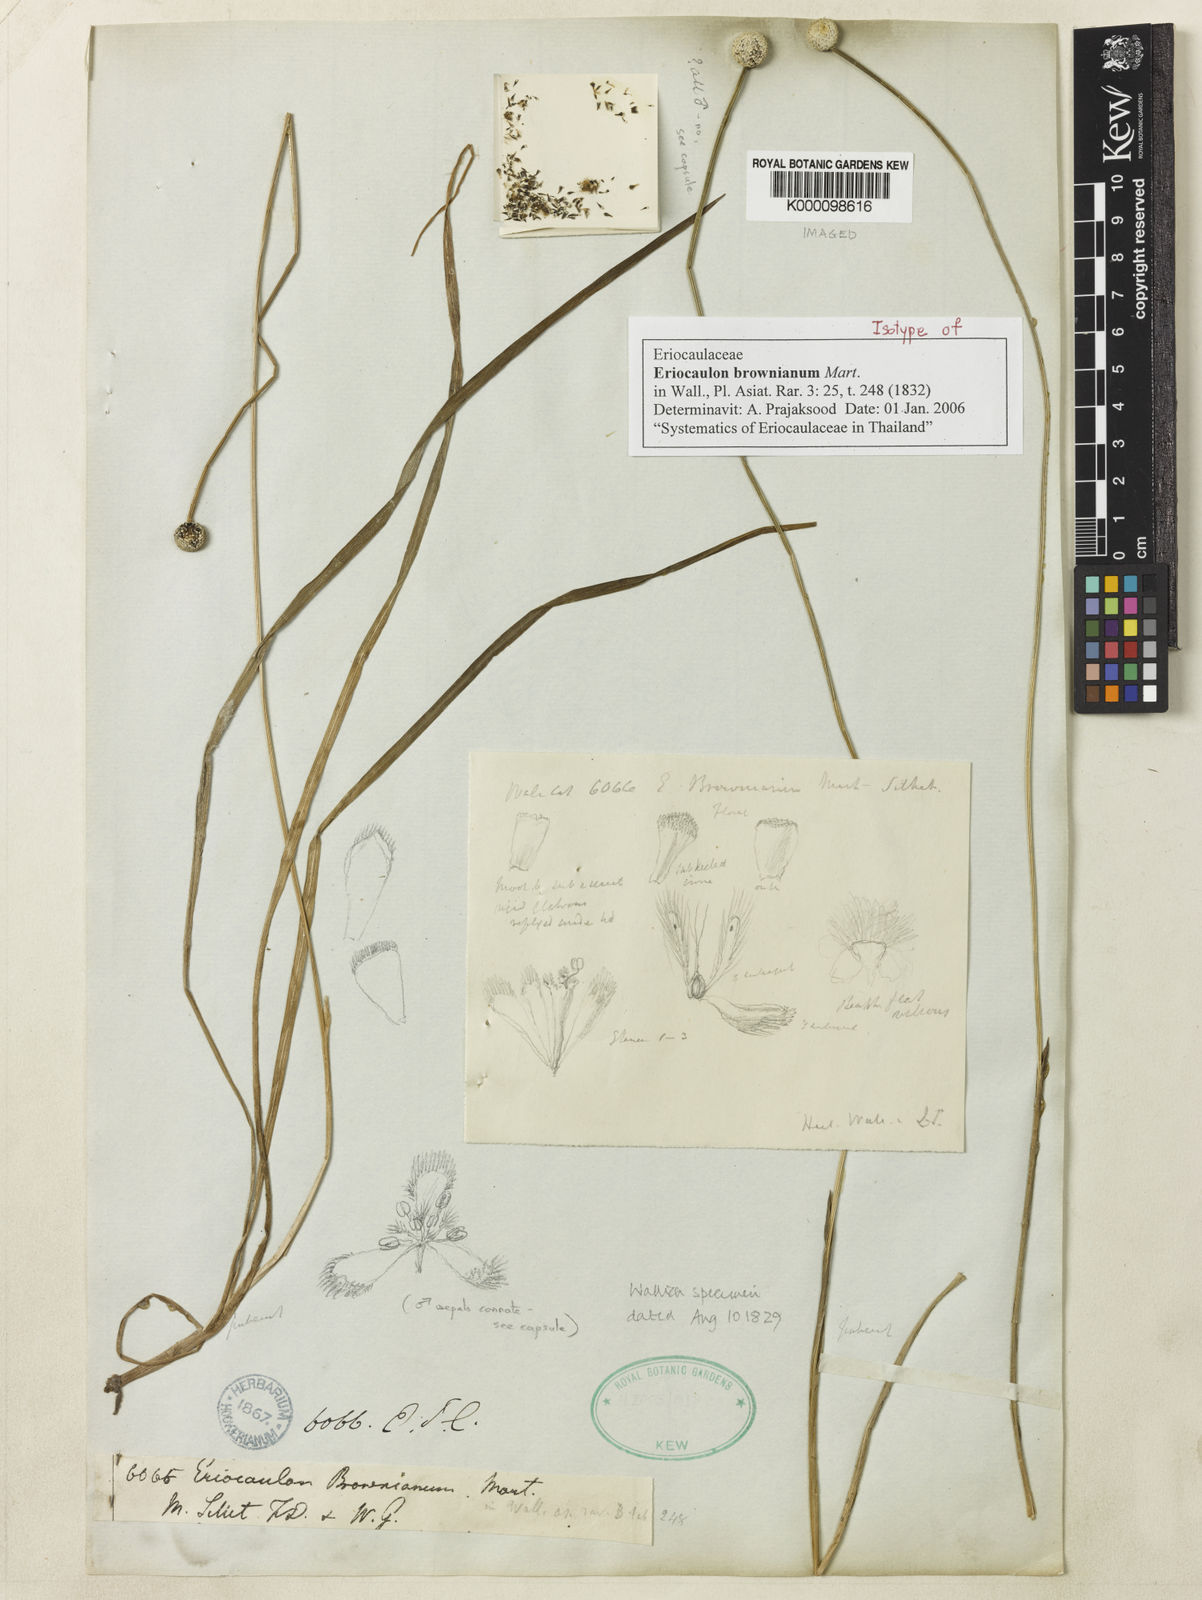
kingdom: Plantae
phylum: Tracheophyta
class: Liliopsida
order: Poales
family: Eriocaulaceae
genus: Eriocaulon
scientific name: Eriocaulon brownianum
